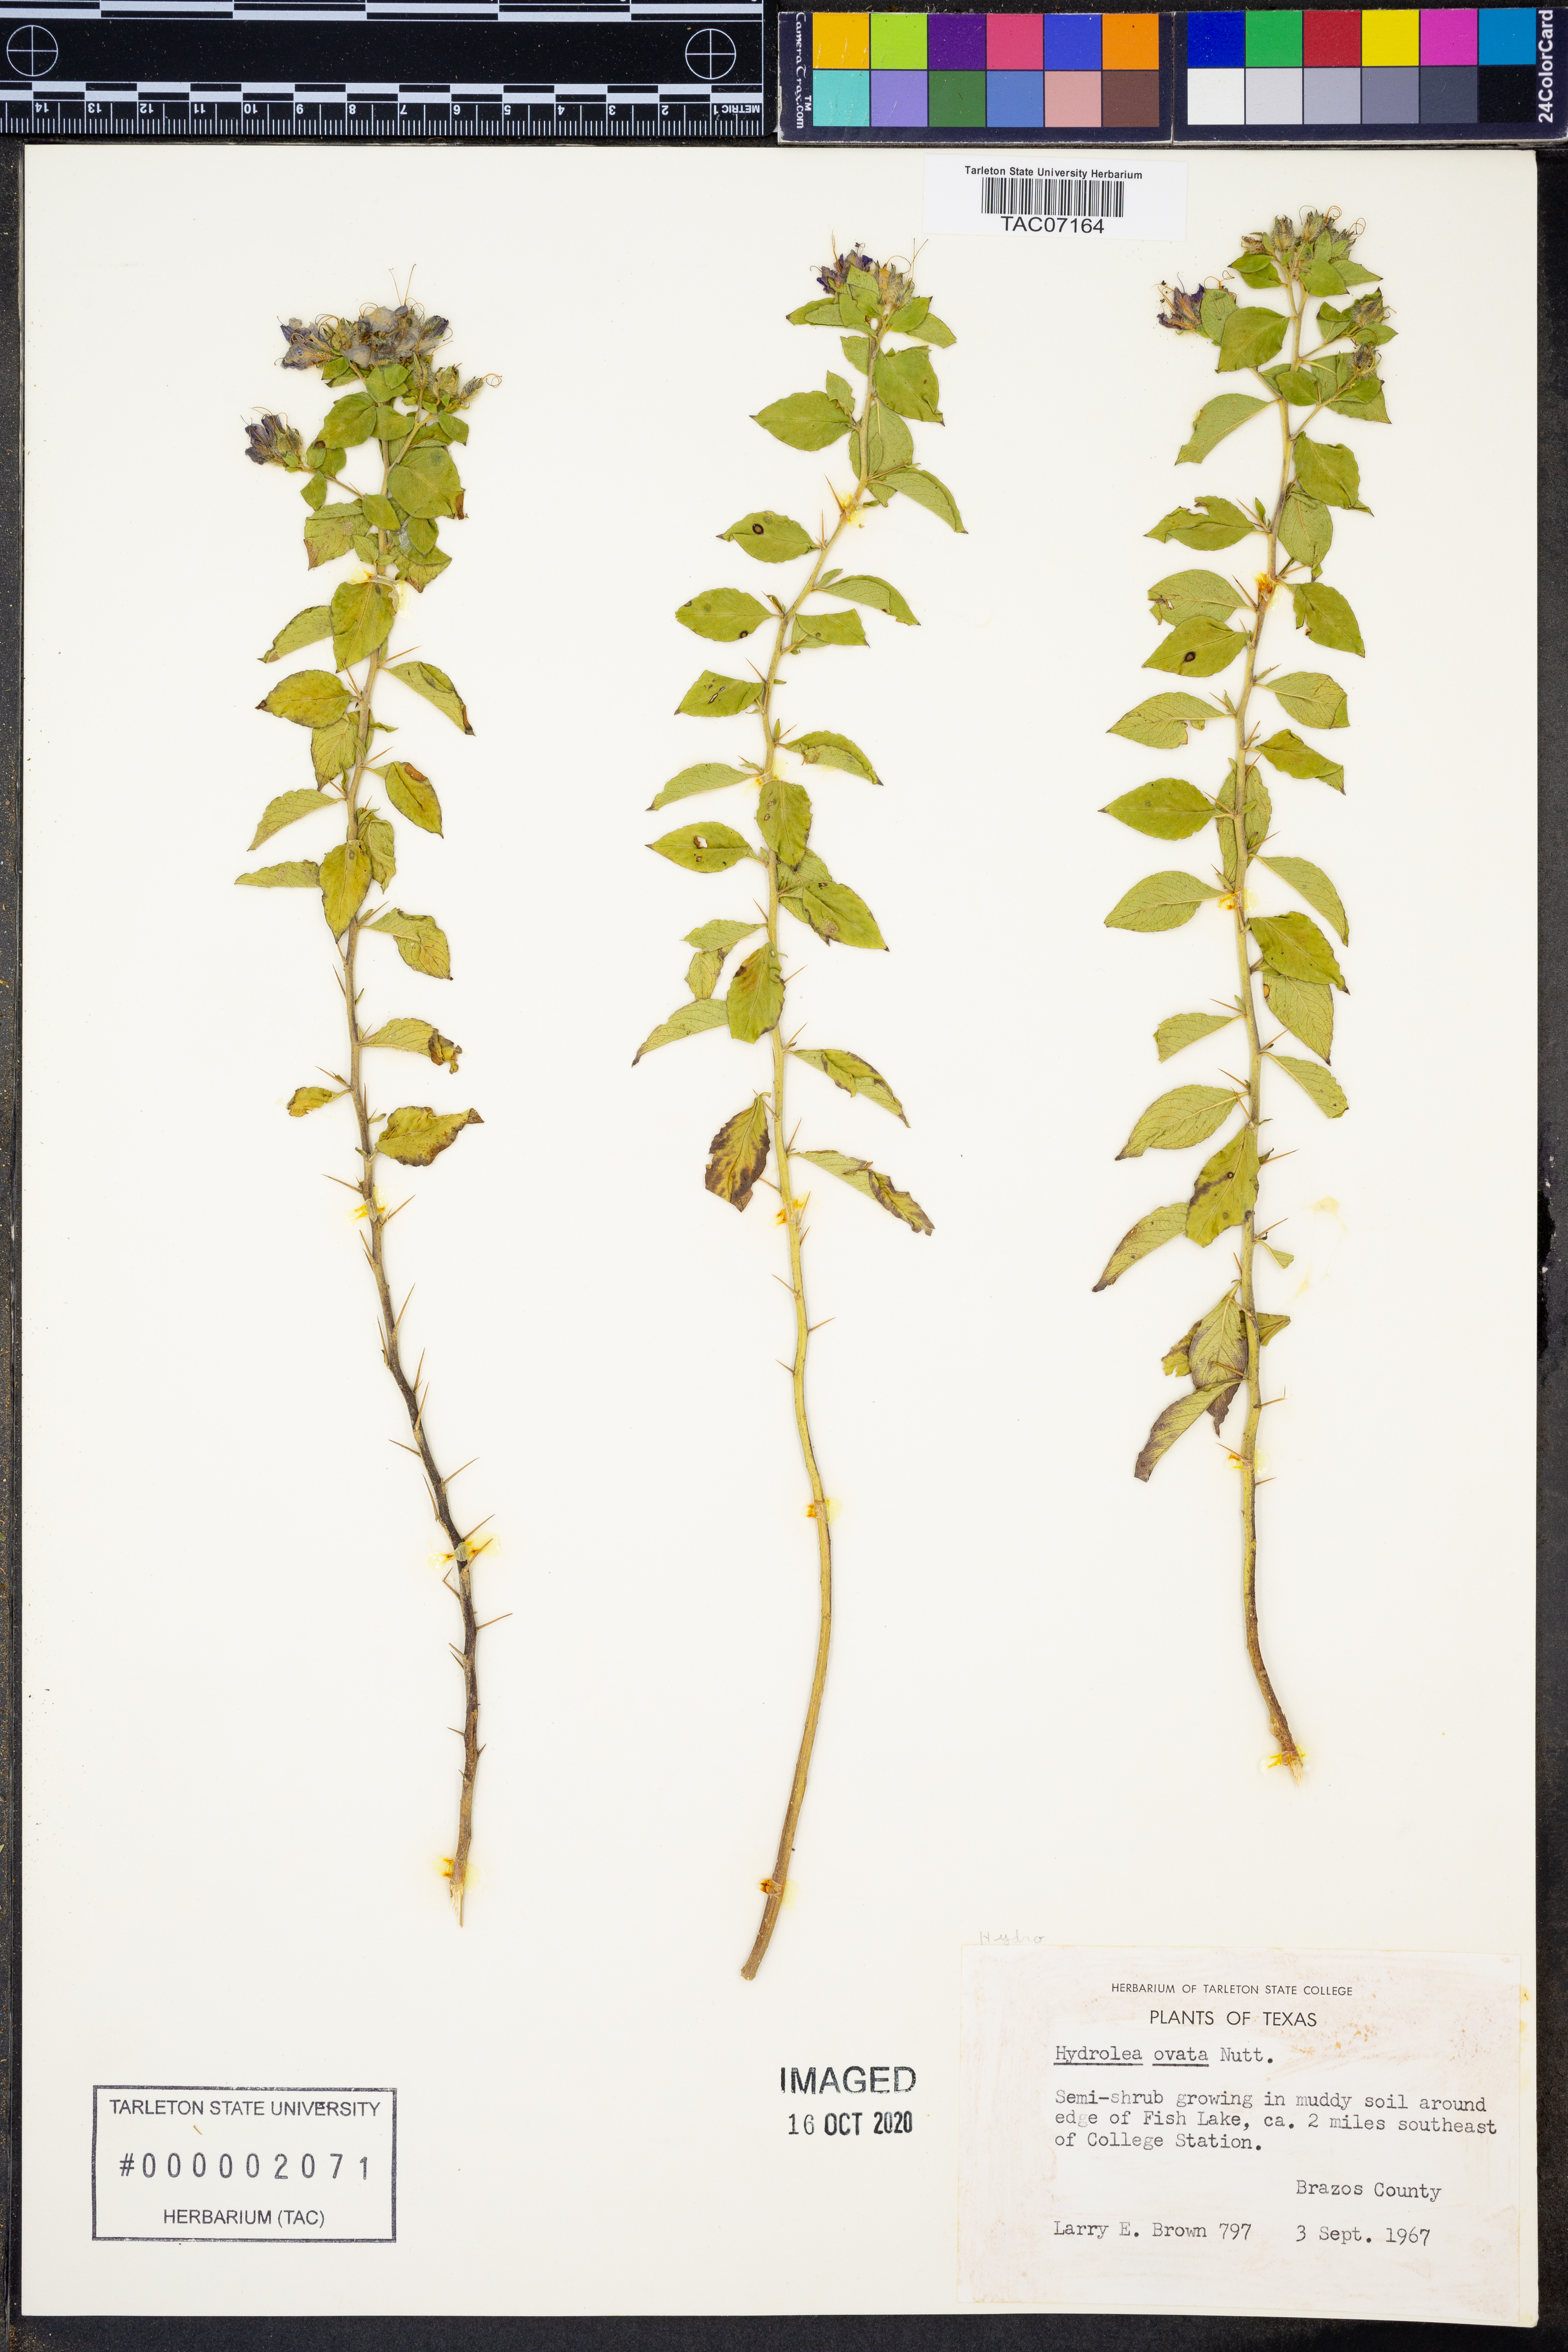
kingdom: Plantae
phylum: Tracheophyta
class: Magnoliopsida
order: Solanales
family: Hydroleaceae
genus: Hydrolea
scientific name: Hydrolea ovata
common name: Ovate false fiddleleaf
